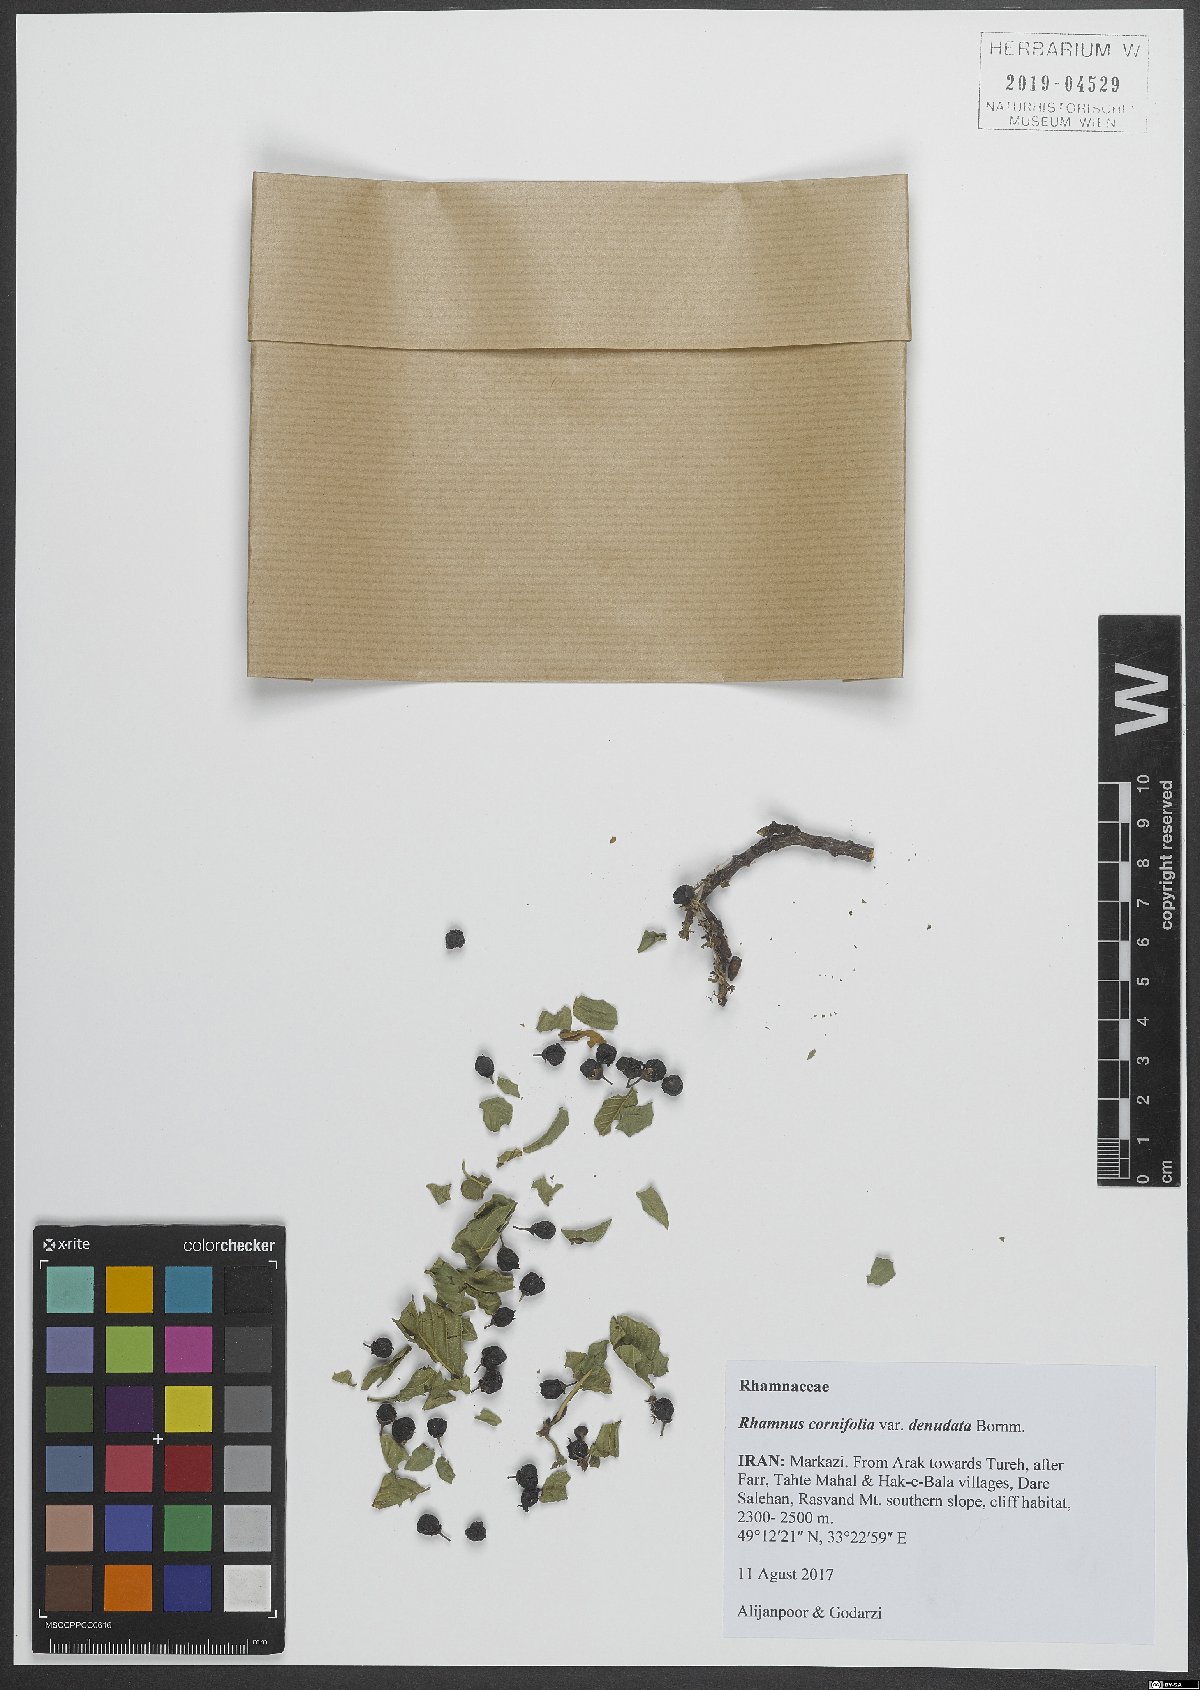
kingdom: Plantae
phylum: Tracheophyta
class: Magnoliopsida
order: Rosales
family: Rhamnaceae
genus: Atadinus
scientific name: Atadinus cornifolius
